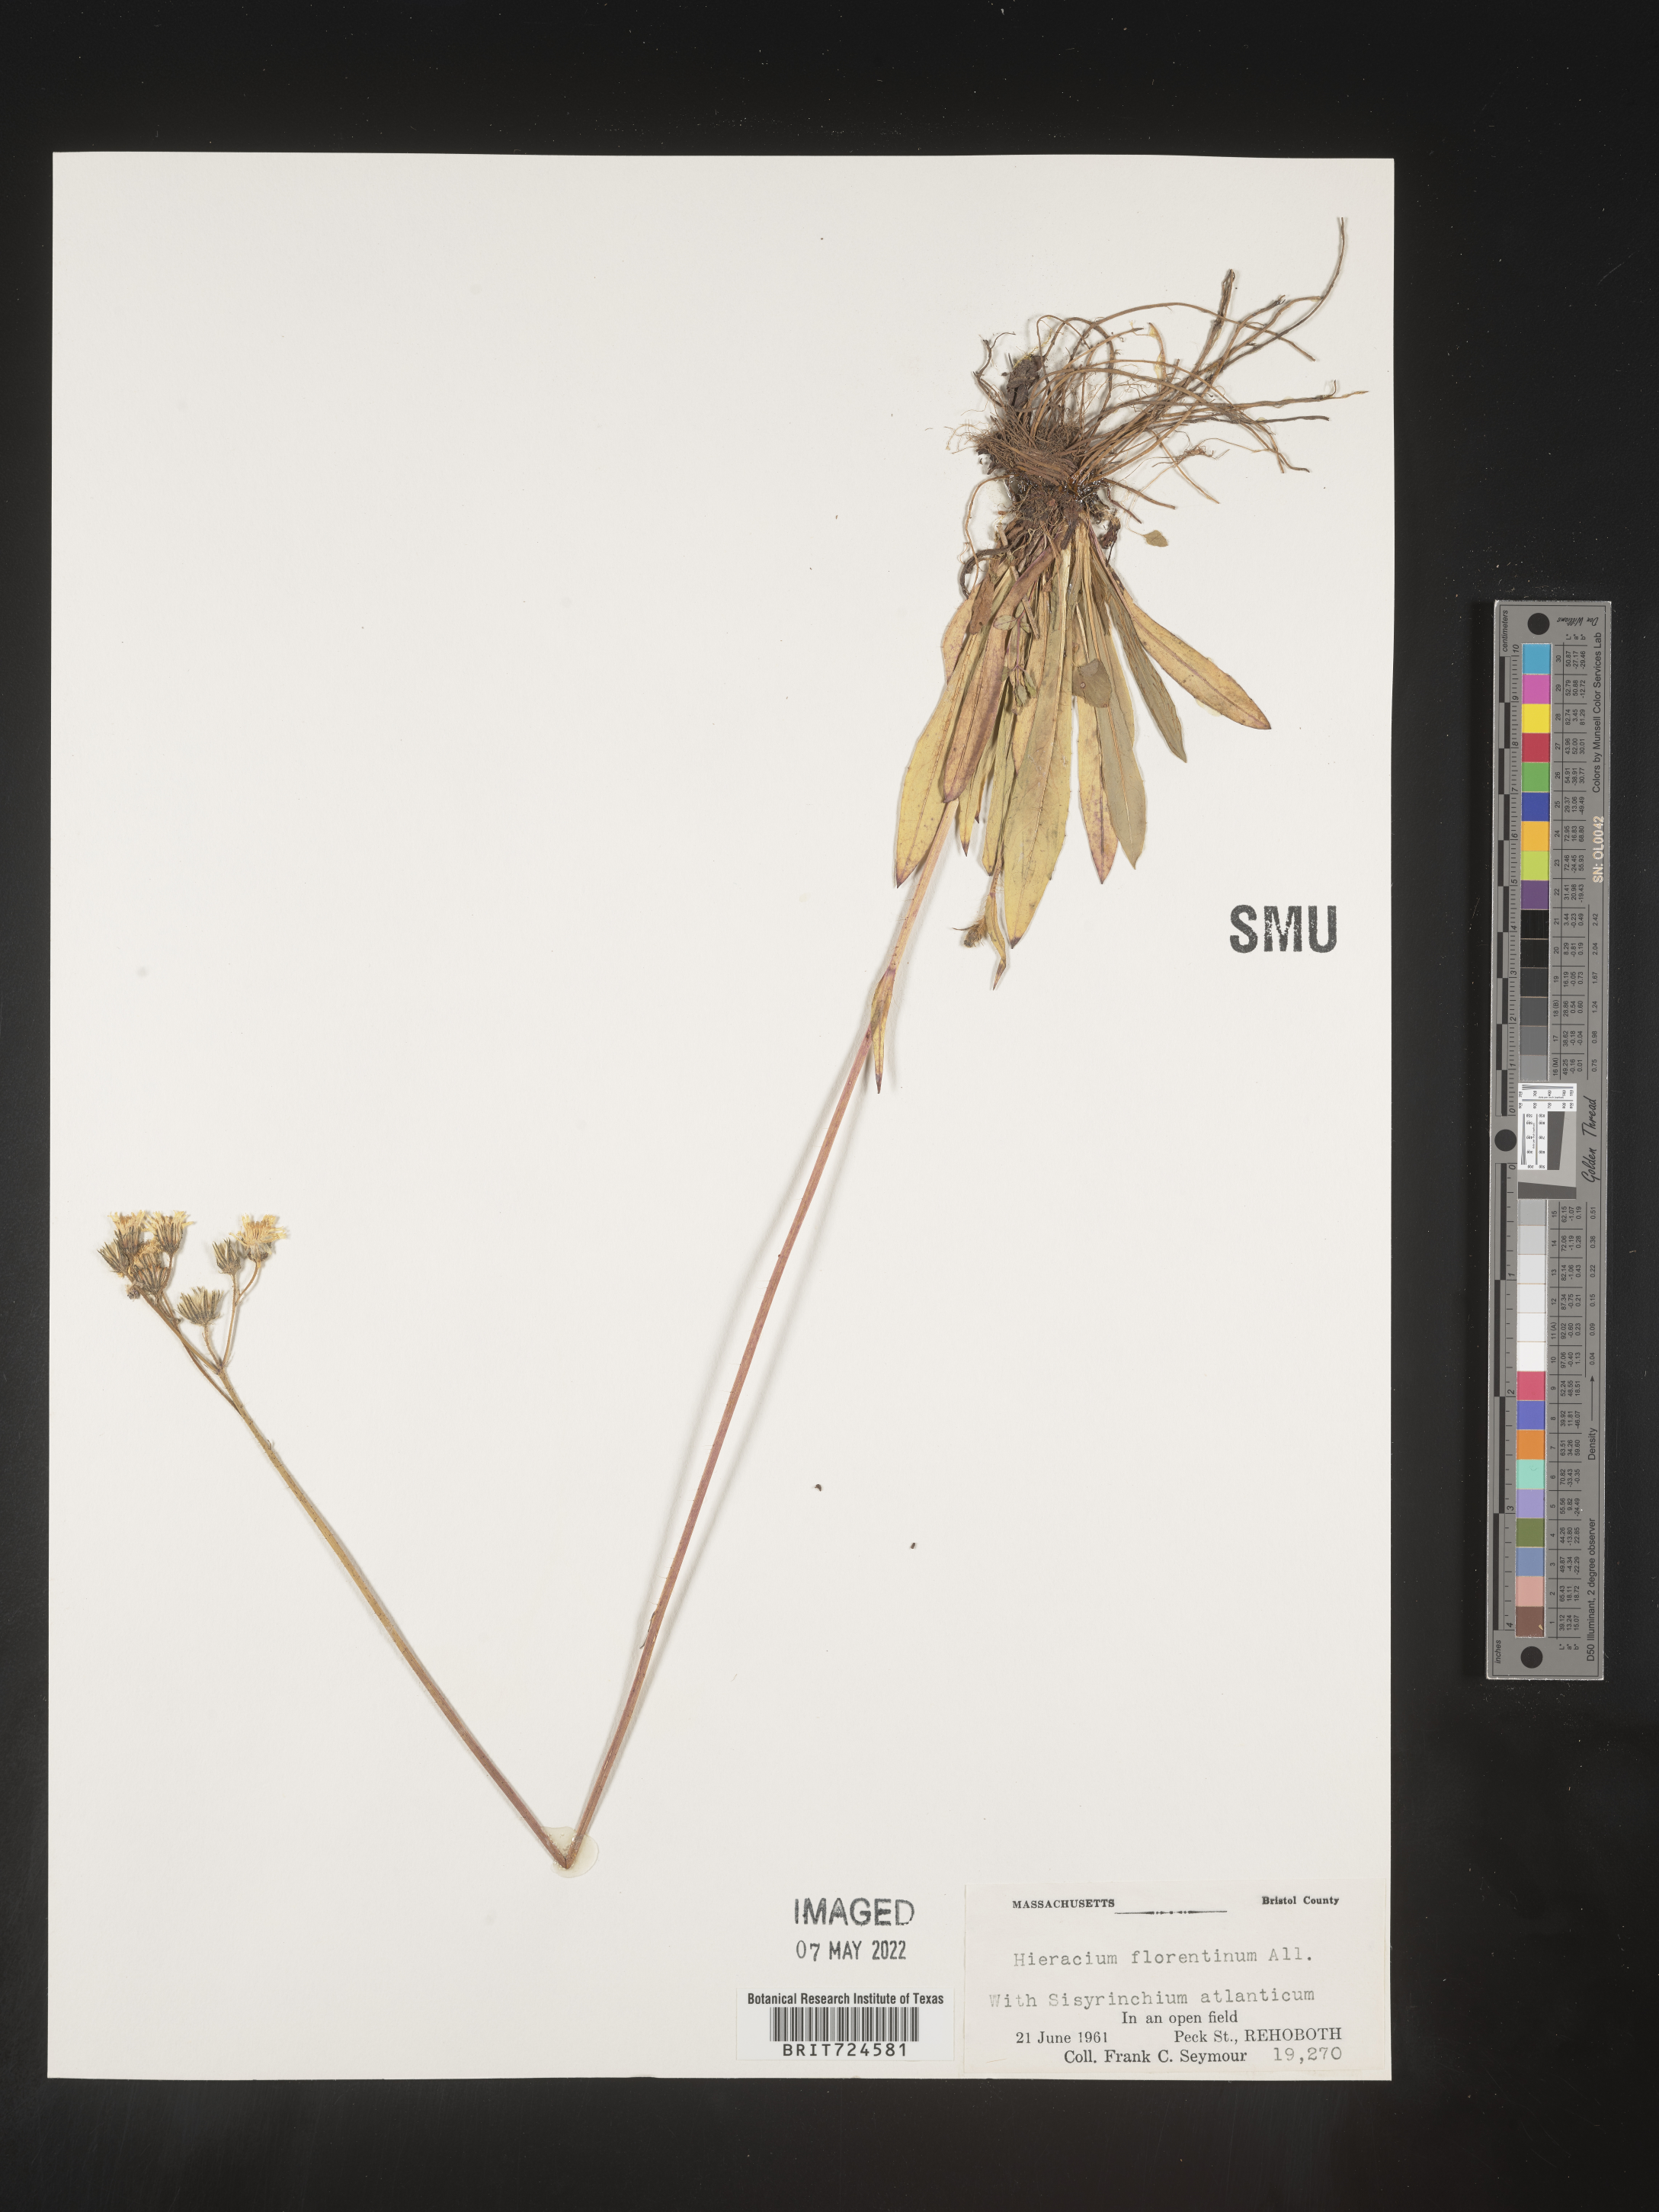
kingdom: Plantae
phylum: Tracheophyta
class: Magnoliopsida
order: Asterales
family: Asteraceae
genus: Pilosella
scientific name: Pilosella piloselloides
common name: Glaucous king-devil
